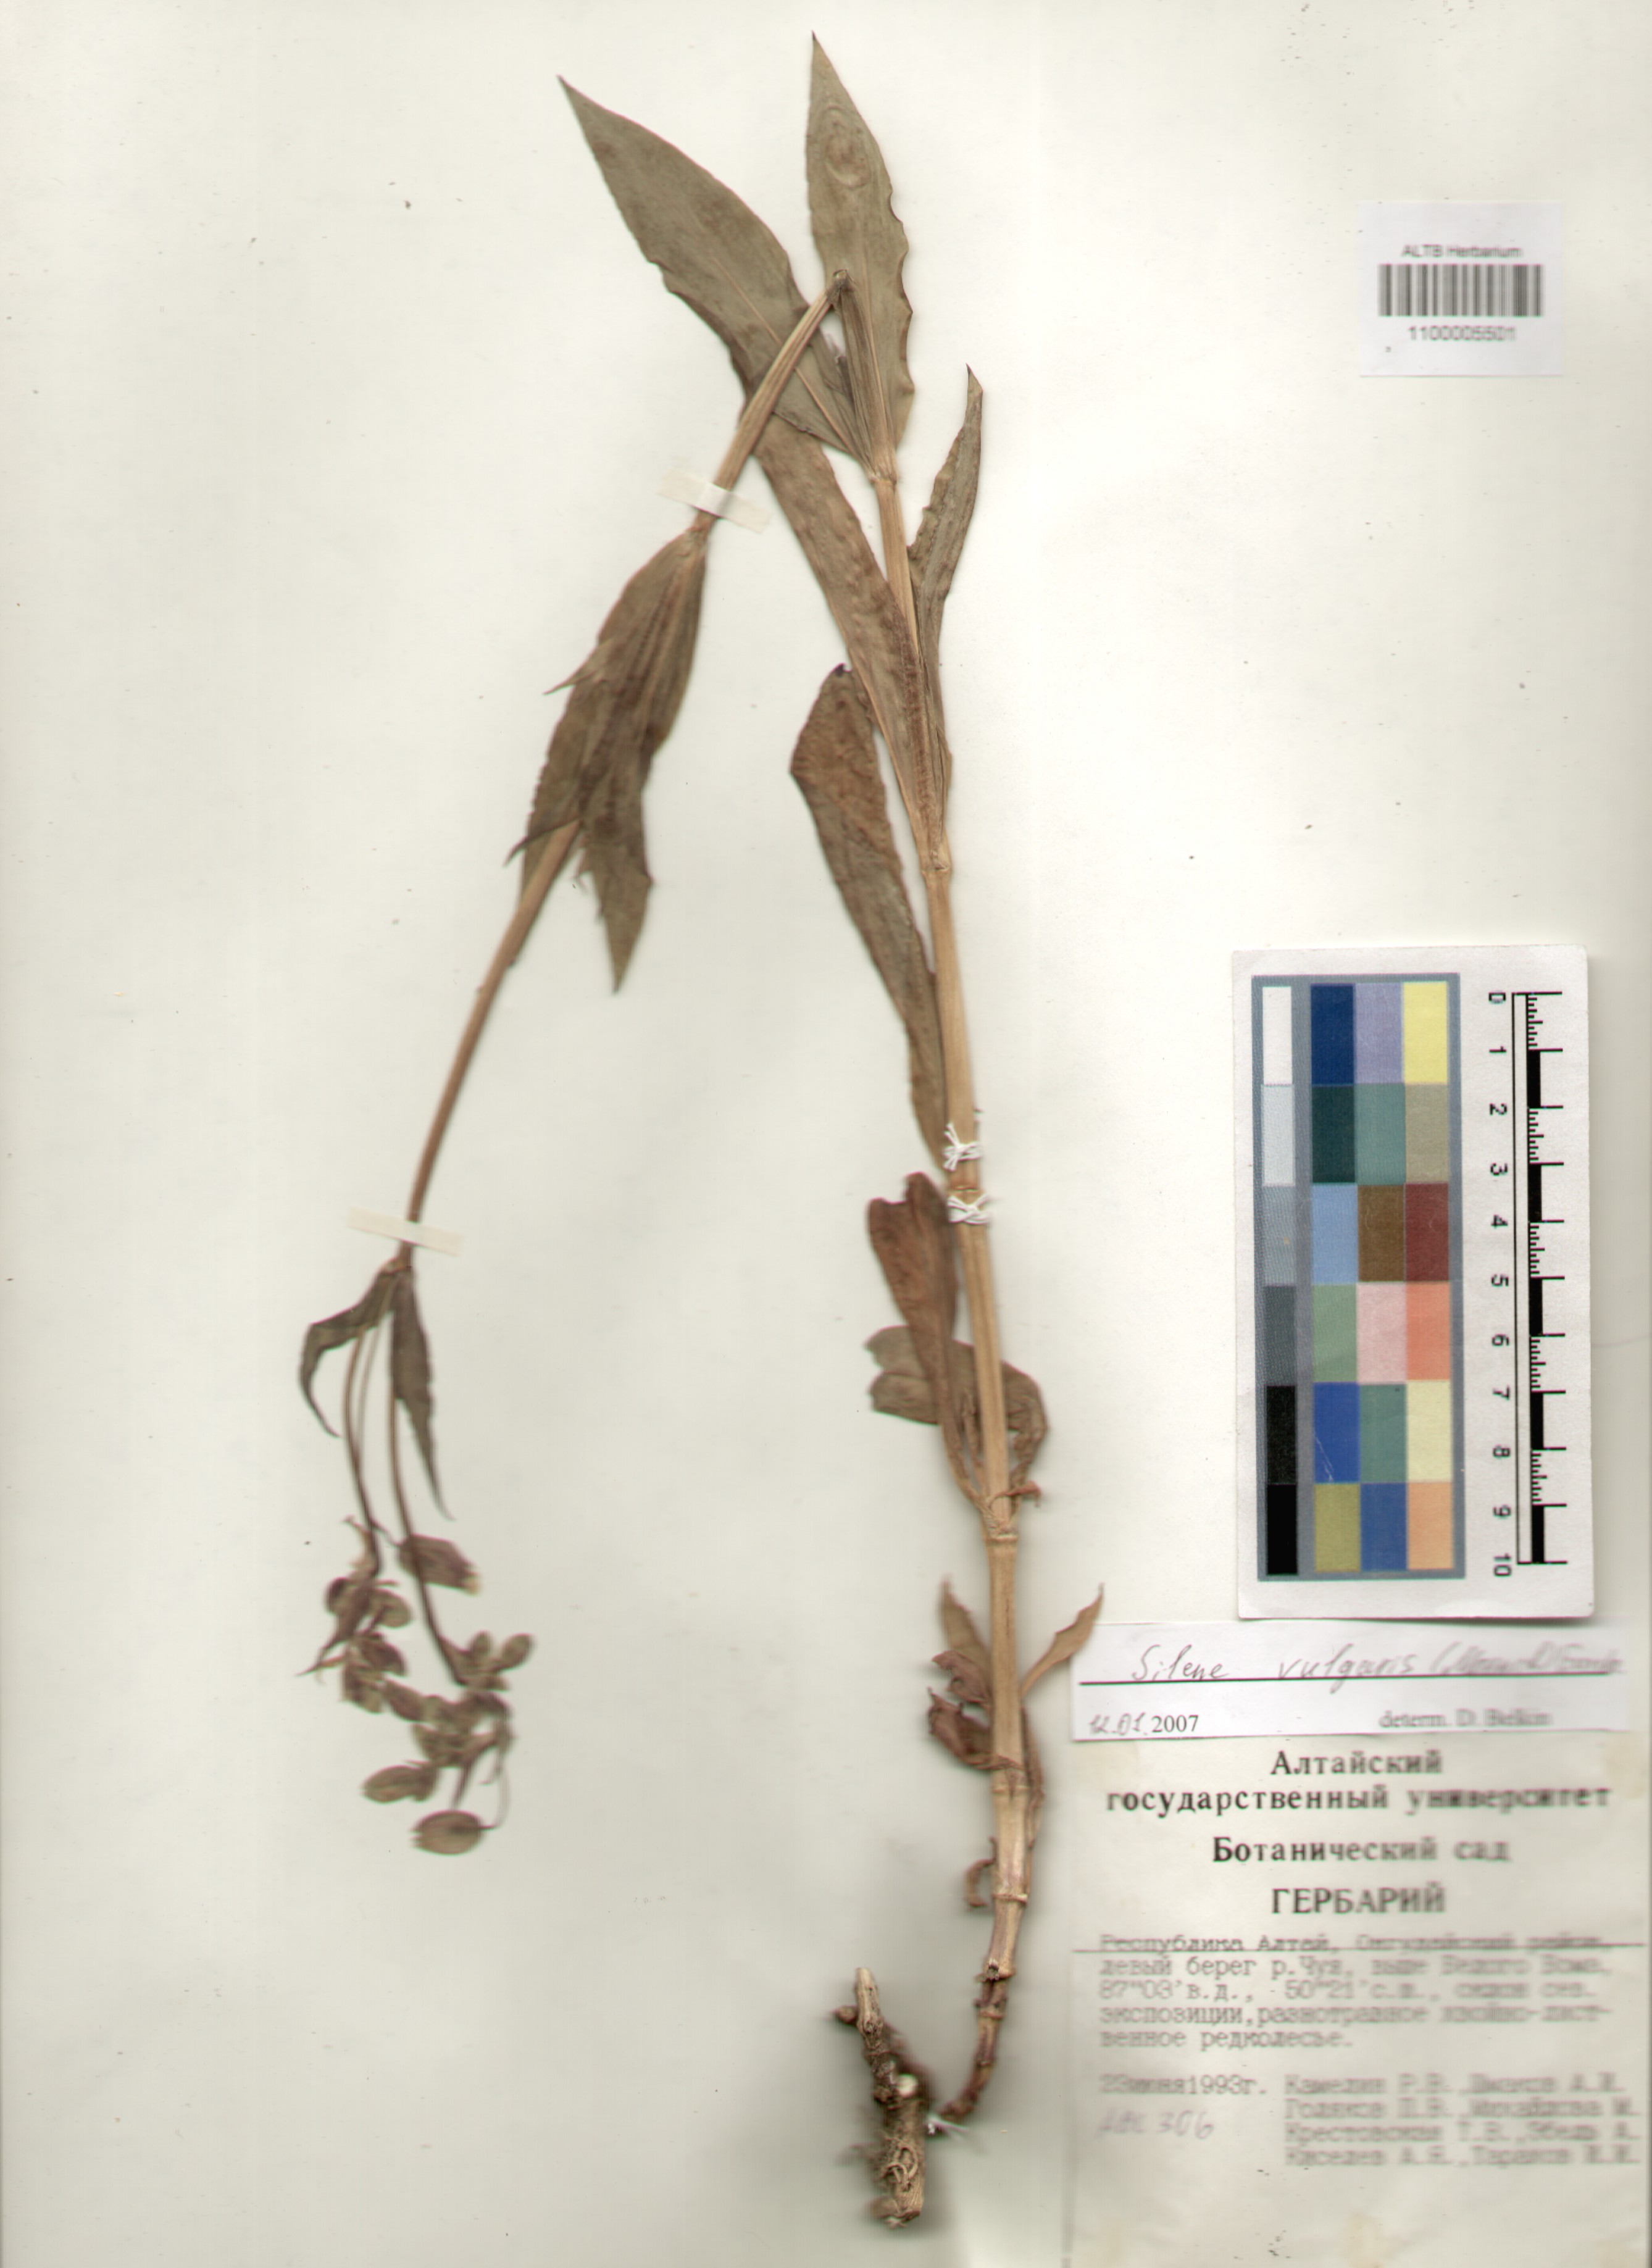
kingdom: Plantae
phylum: Tracheophyta
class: Magnoliopsida
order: Caryophyllales
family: Caryophyllaceae
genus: Silene
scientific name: Silene vulgaris
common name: Bladder campion
